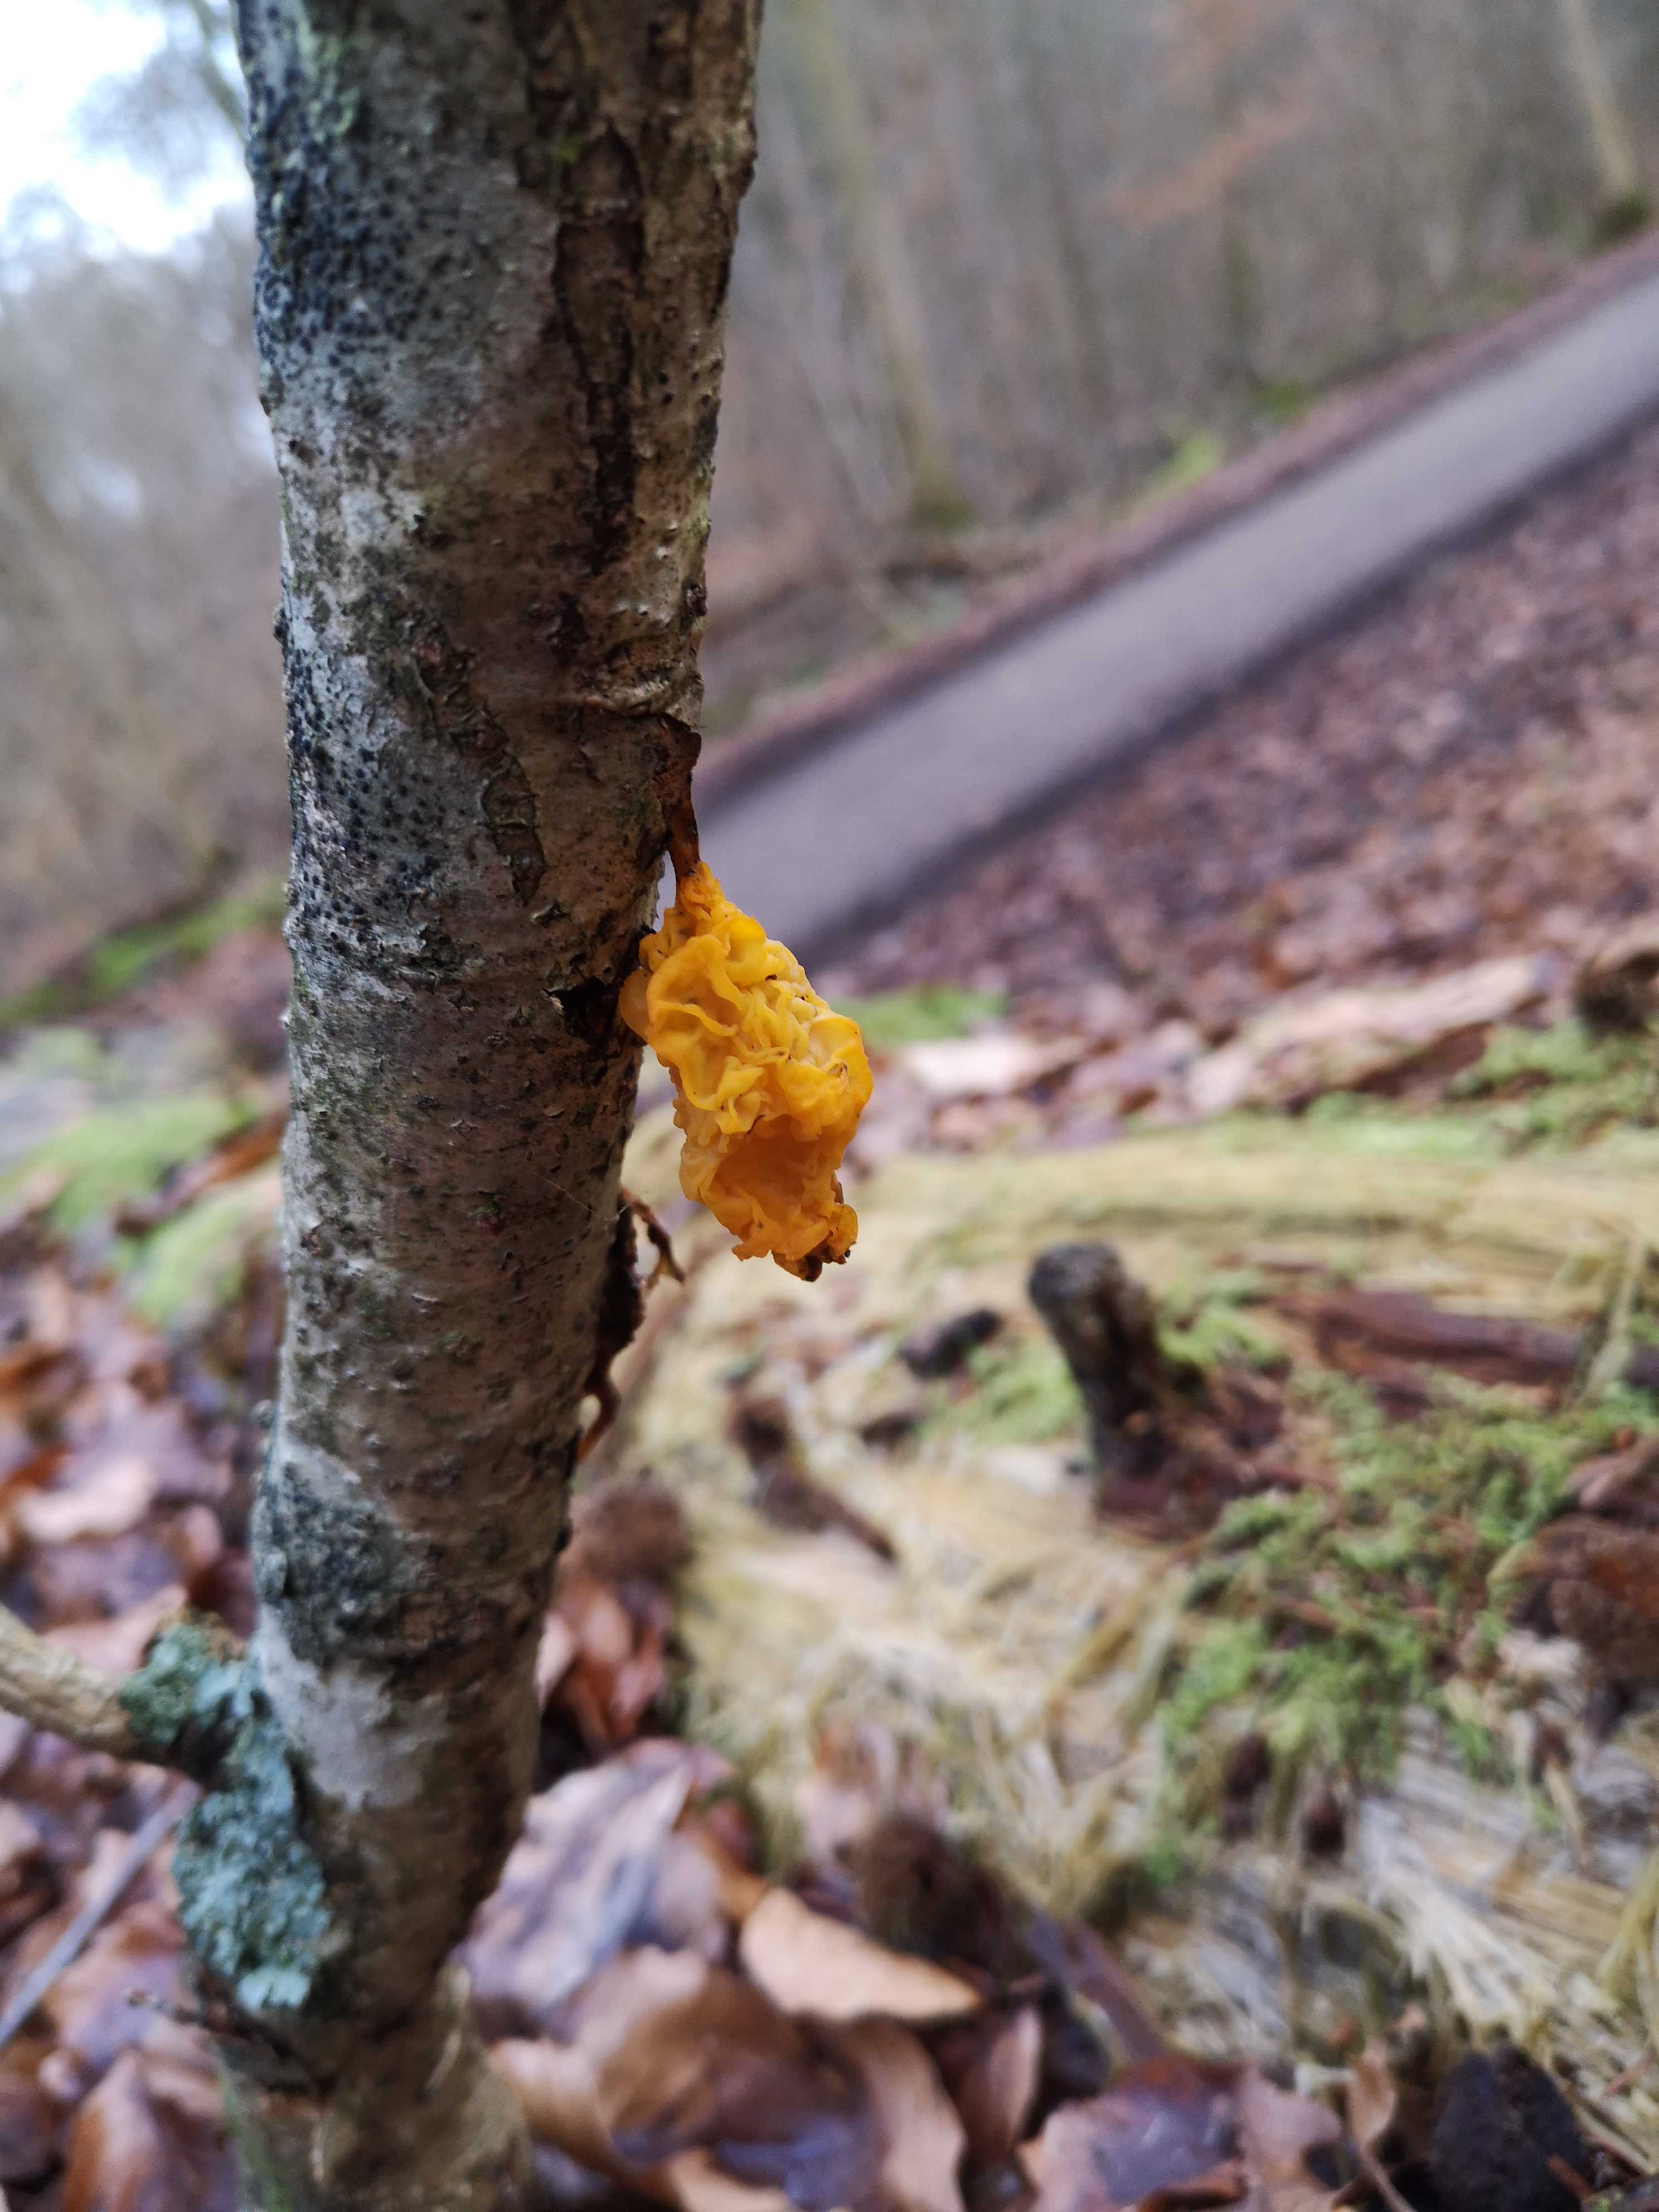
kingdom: Fungi
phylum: Basidiomycota
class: Tremellomycetes
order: Tremellales
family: Tremellaceae
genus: Tremella
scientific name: Tremella mesenterica
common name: gul bævresvamp
